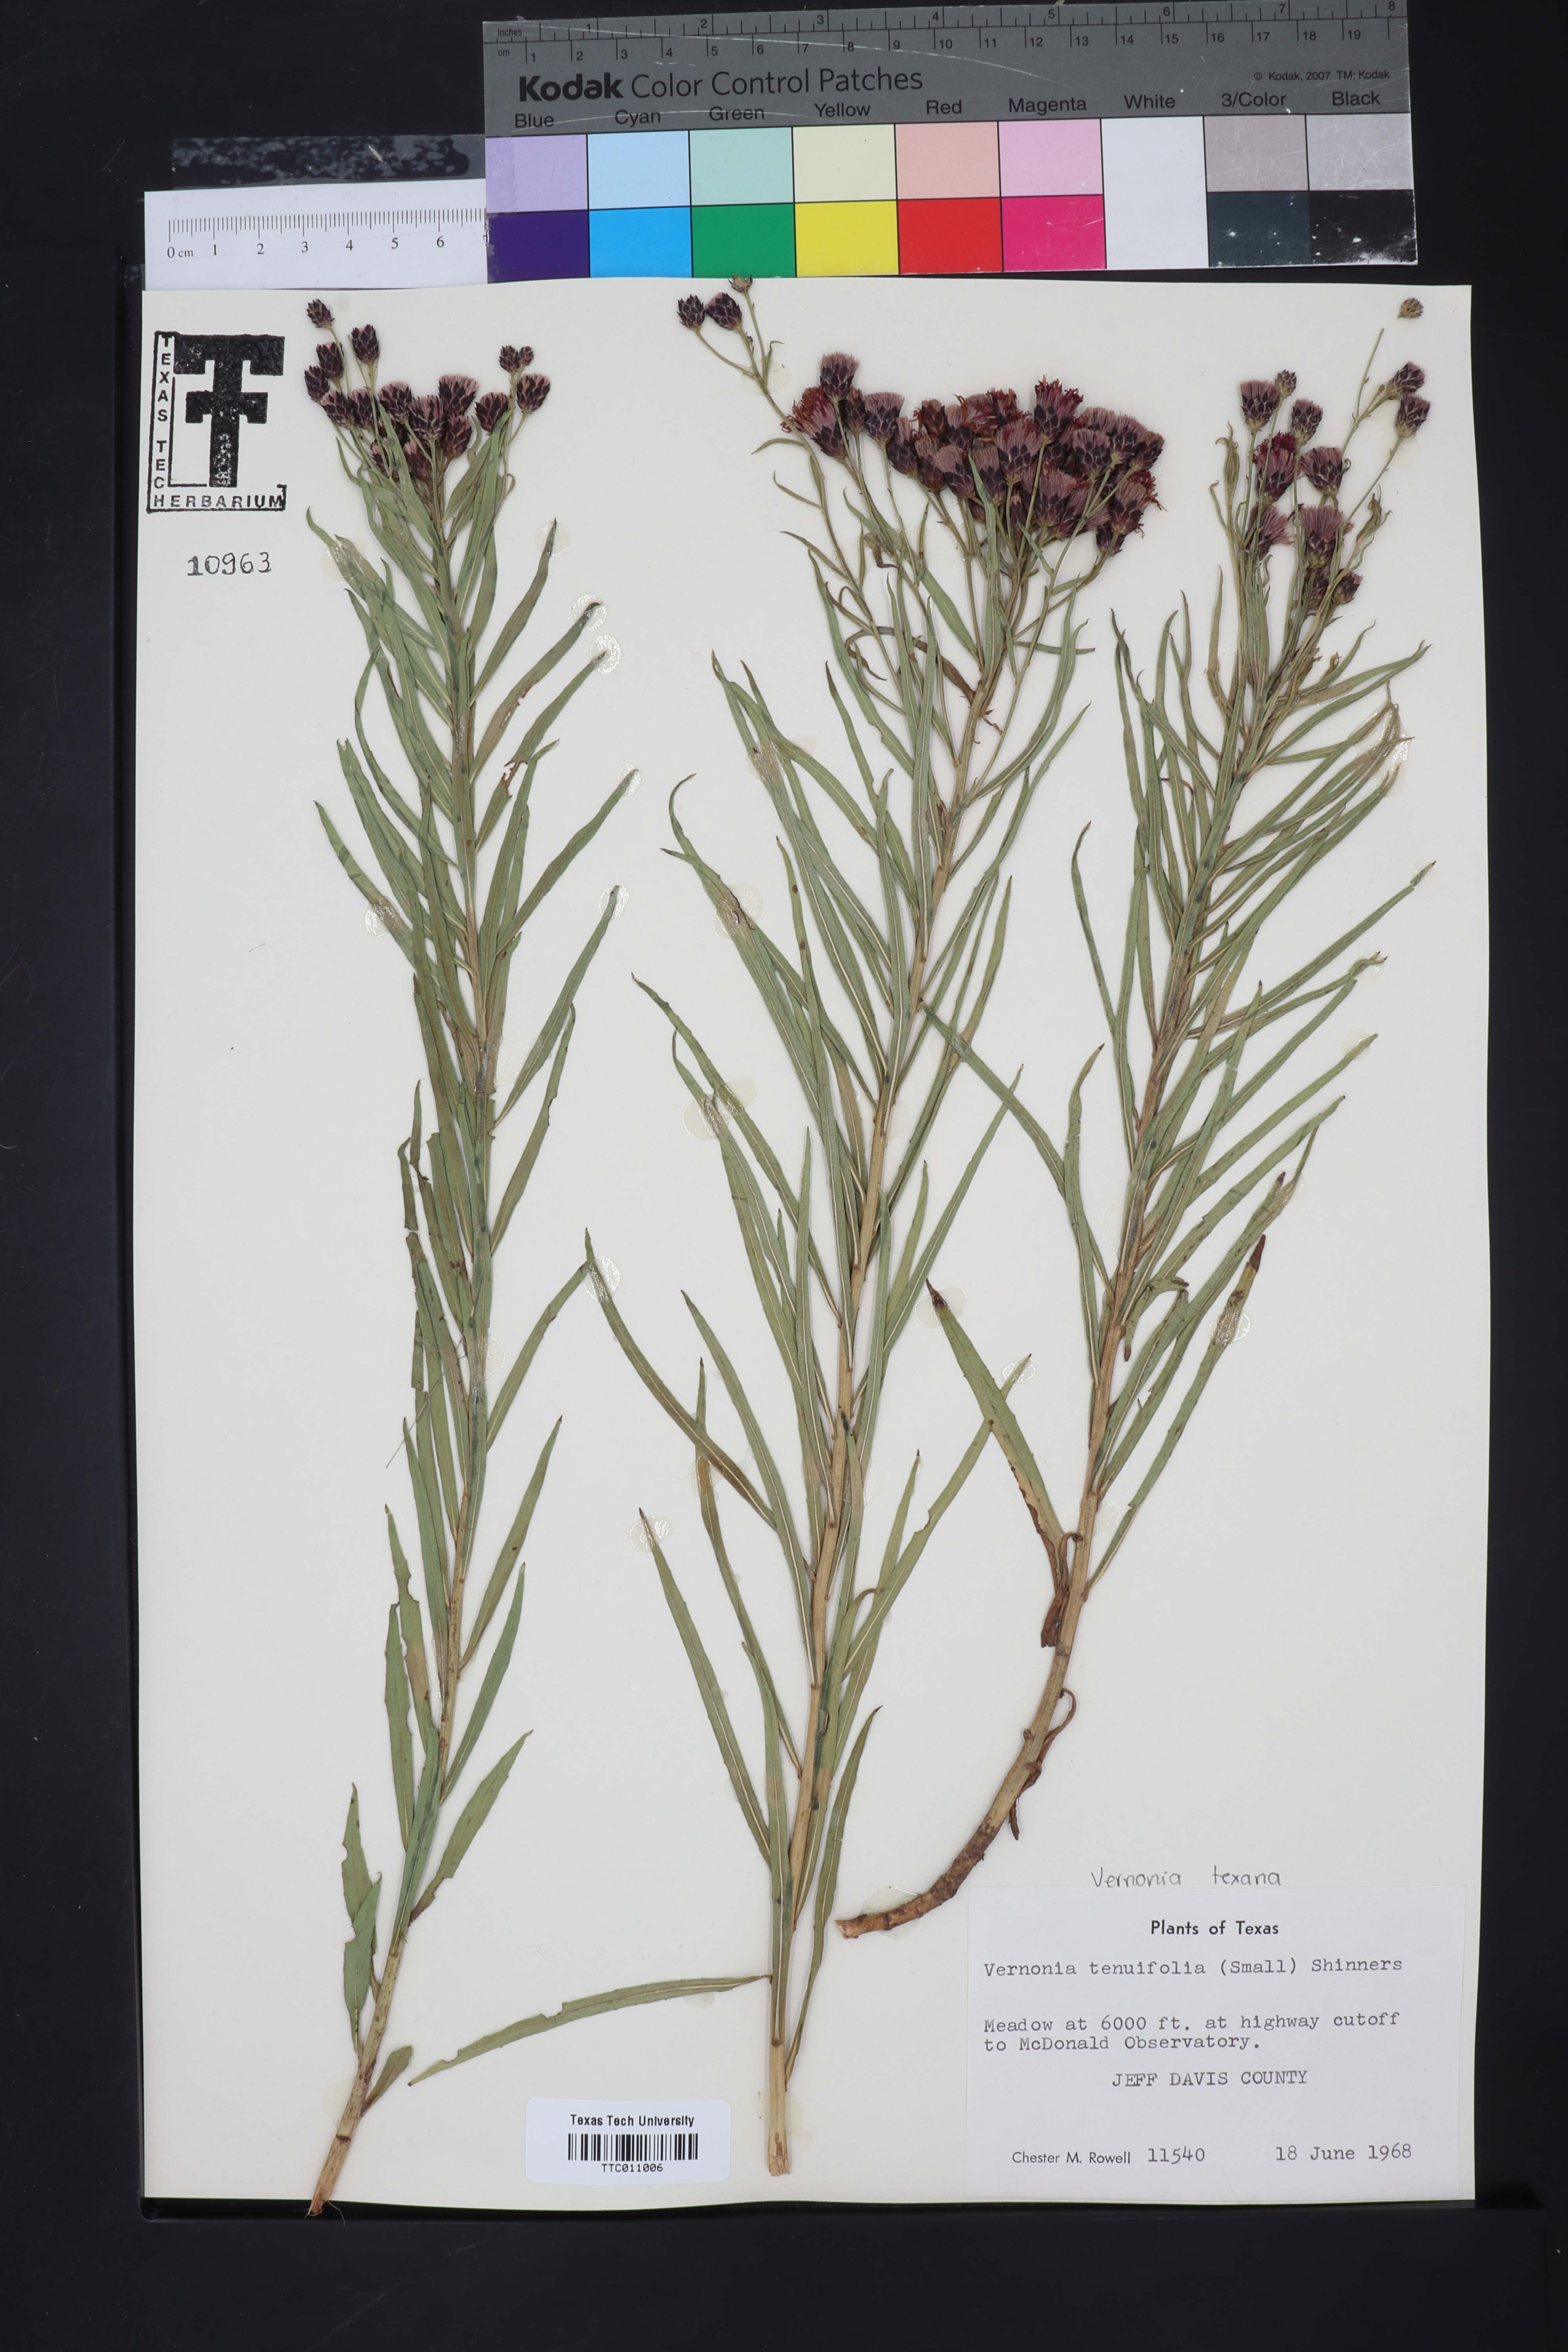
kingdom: Plantae
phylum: Tracheophyta
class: Magnoliopsida
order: Asterales
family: Asteraceae
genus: Vernonia
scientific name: Vernonia marginata
